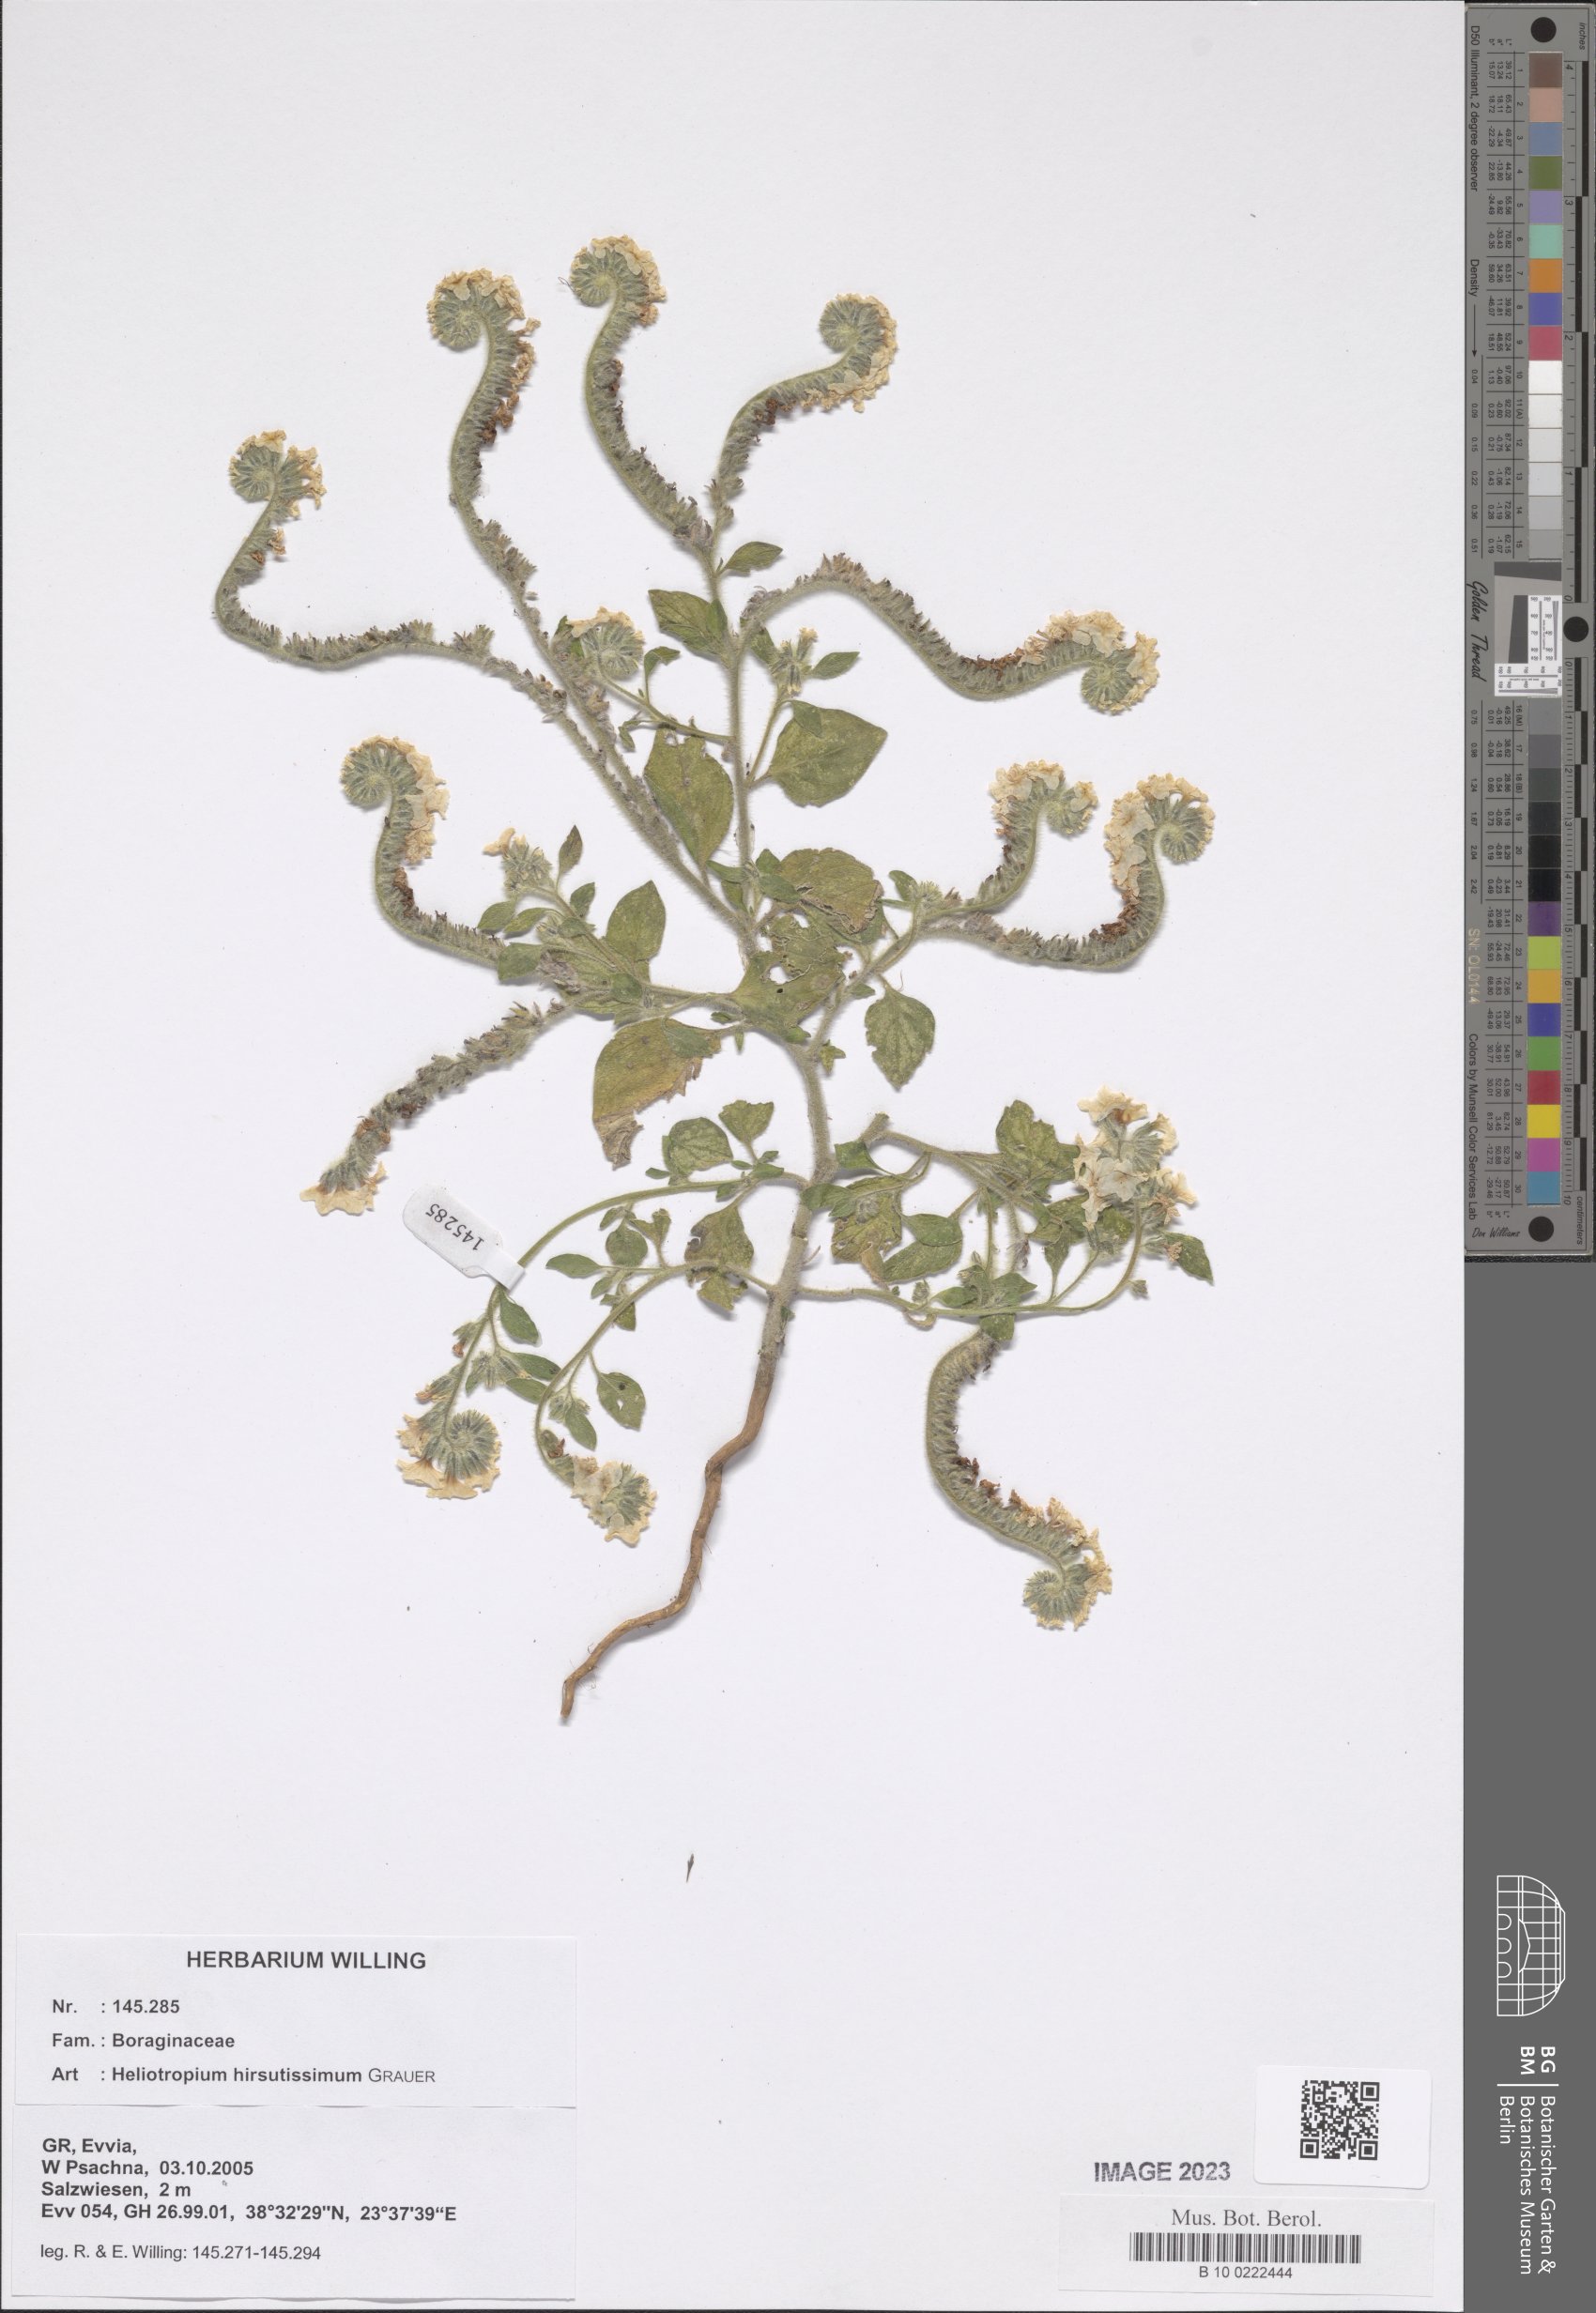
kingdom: Plantae
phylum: Tracheophyta
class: Magnoliopsida
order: Boraginales
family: Heliotropiaceae
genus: Heliotropium
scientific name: Heliotropium hirsutissimum
